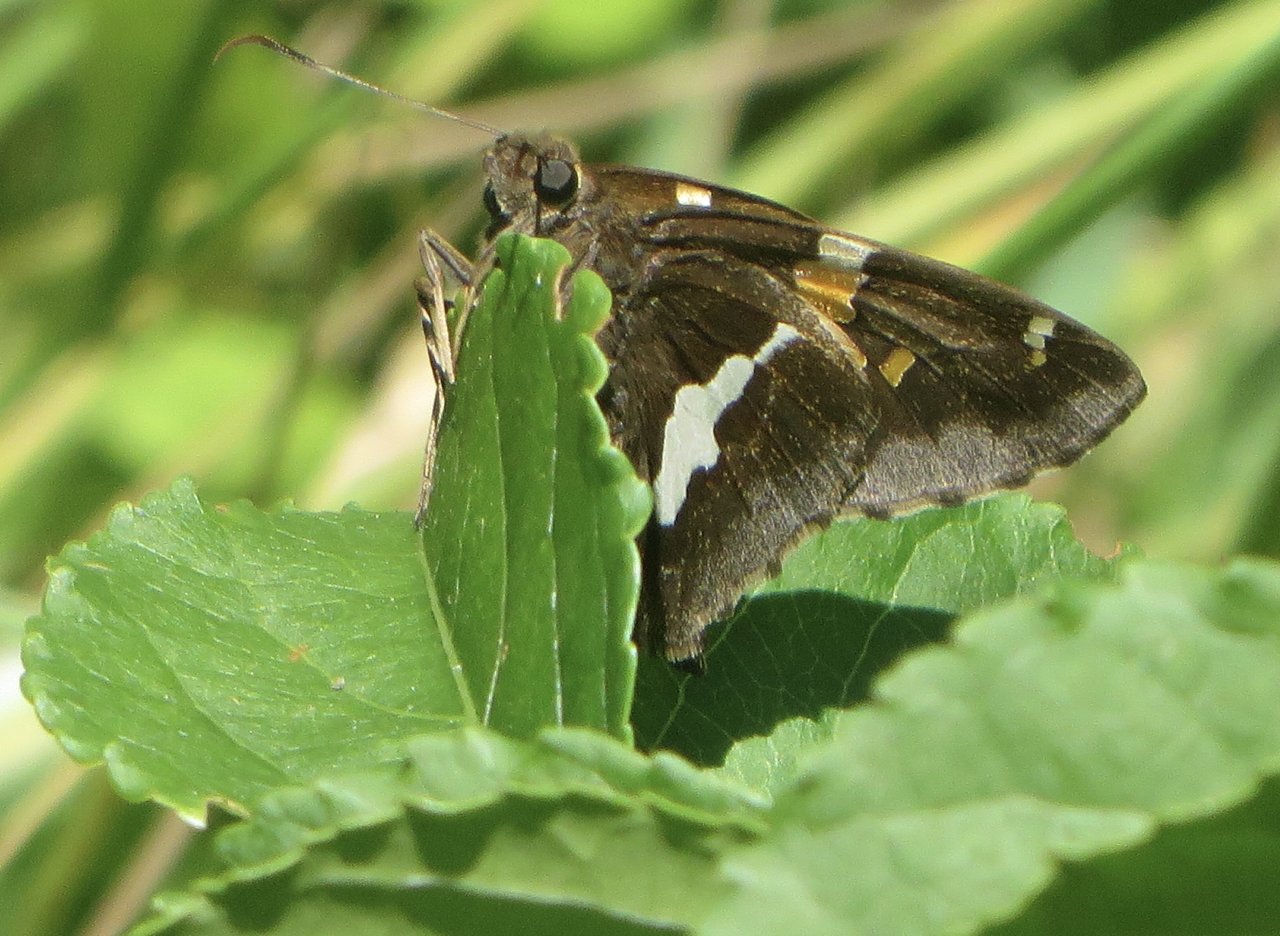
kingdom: Animalia
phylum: Arthropoda
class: Insecta
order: Lepidoptera
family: Hesperiidae
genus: Epargyreus
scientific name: Epargyreus clarus
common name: Silver-spotted Skipper
